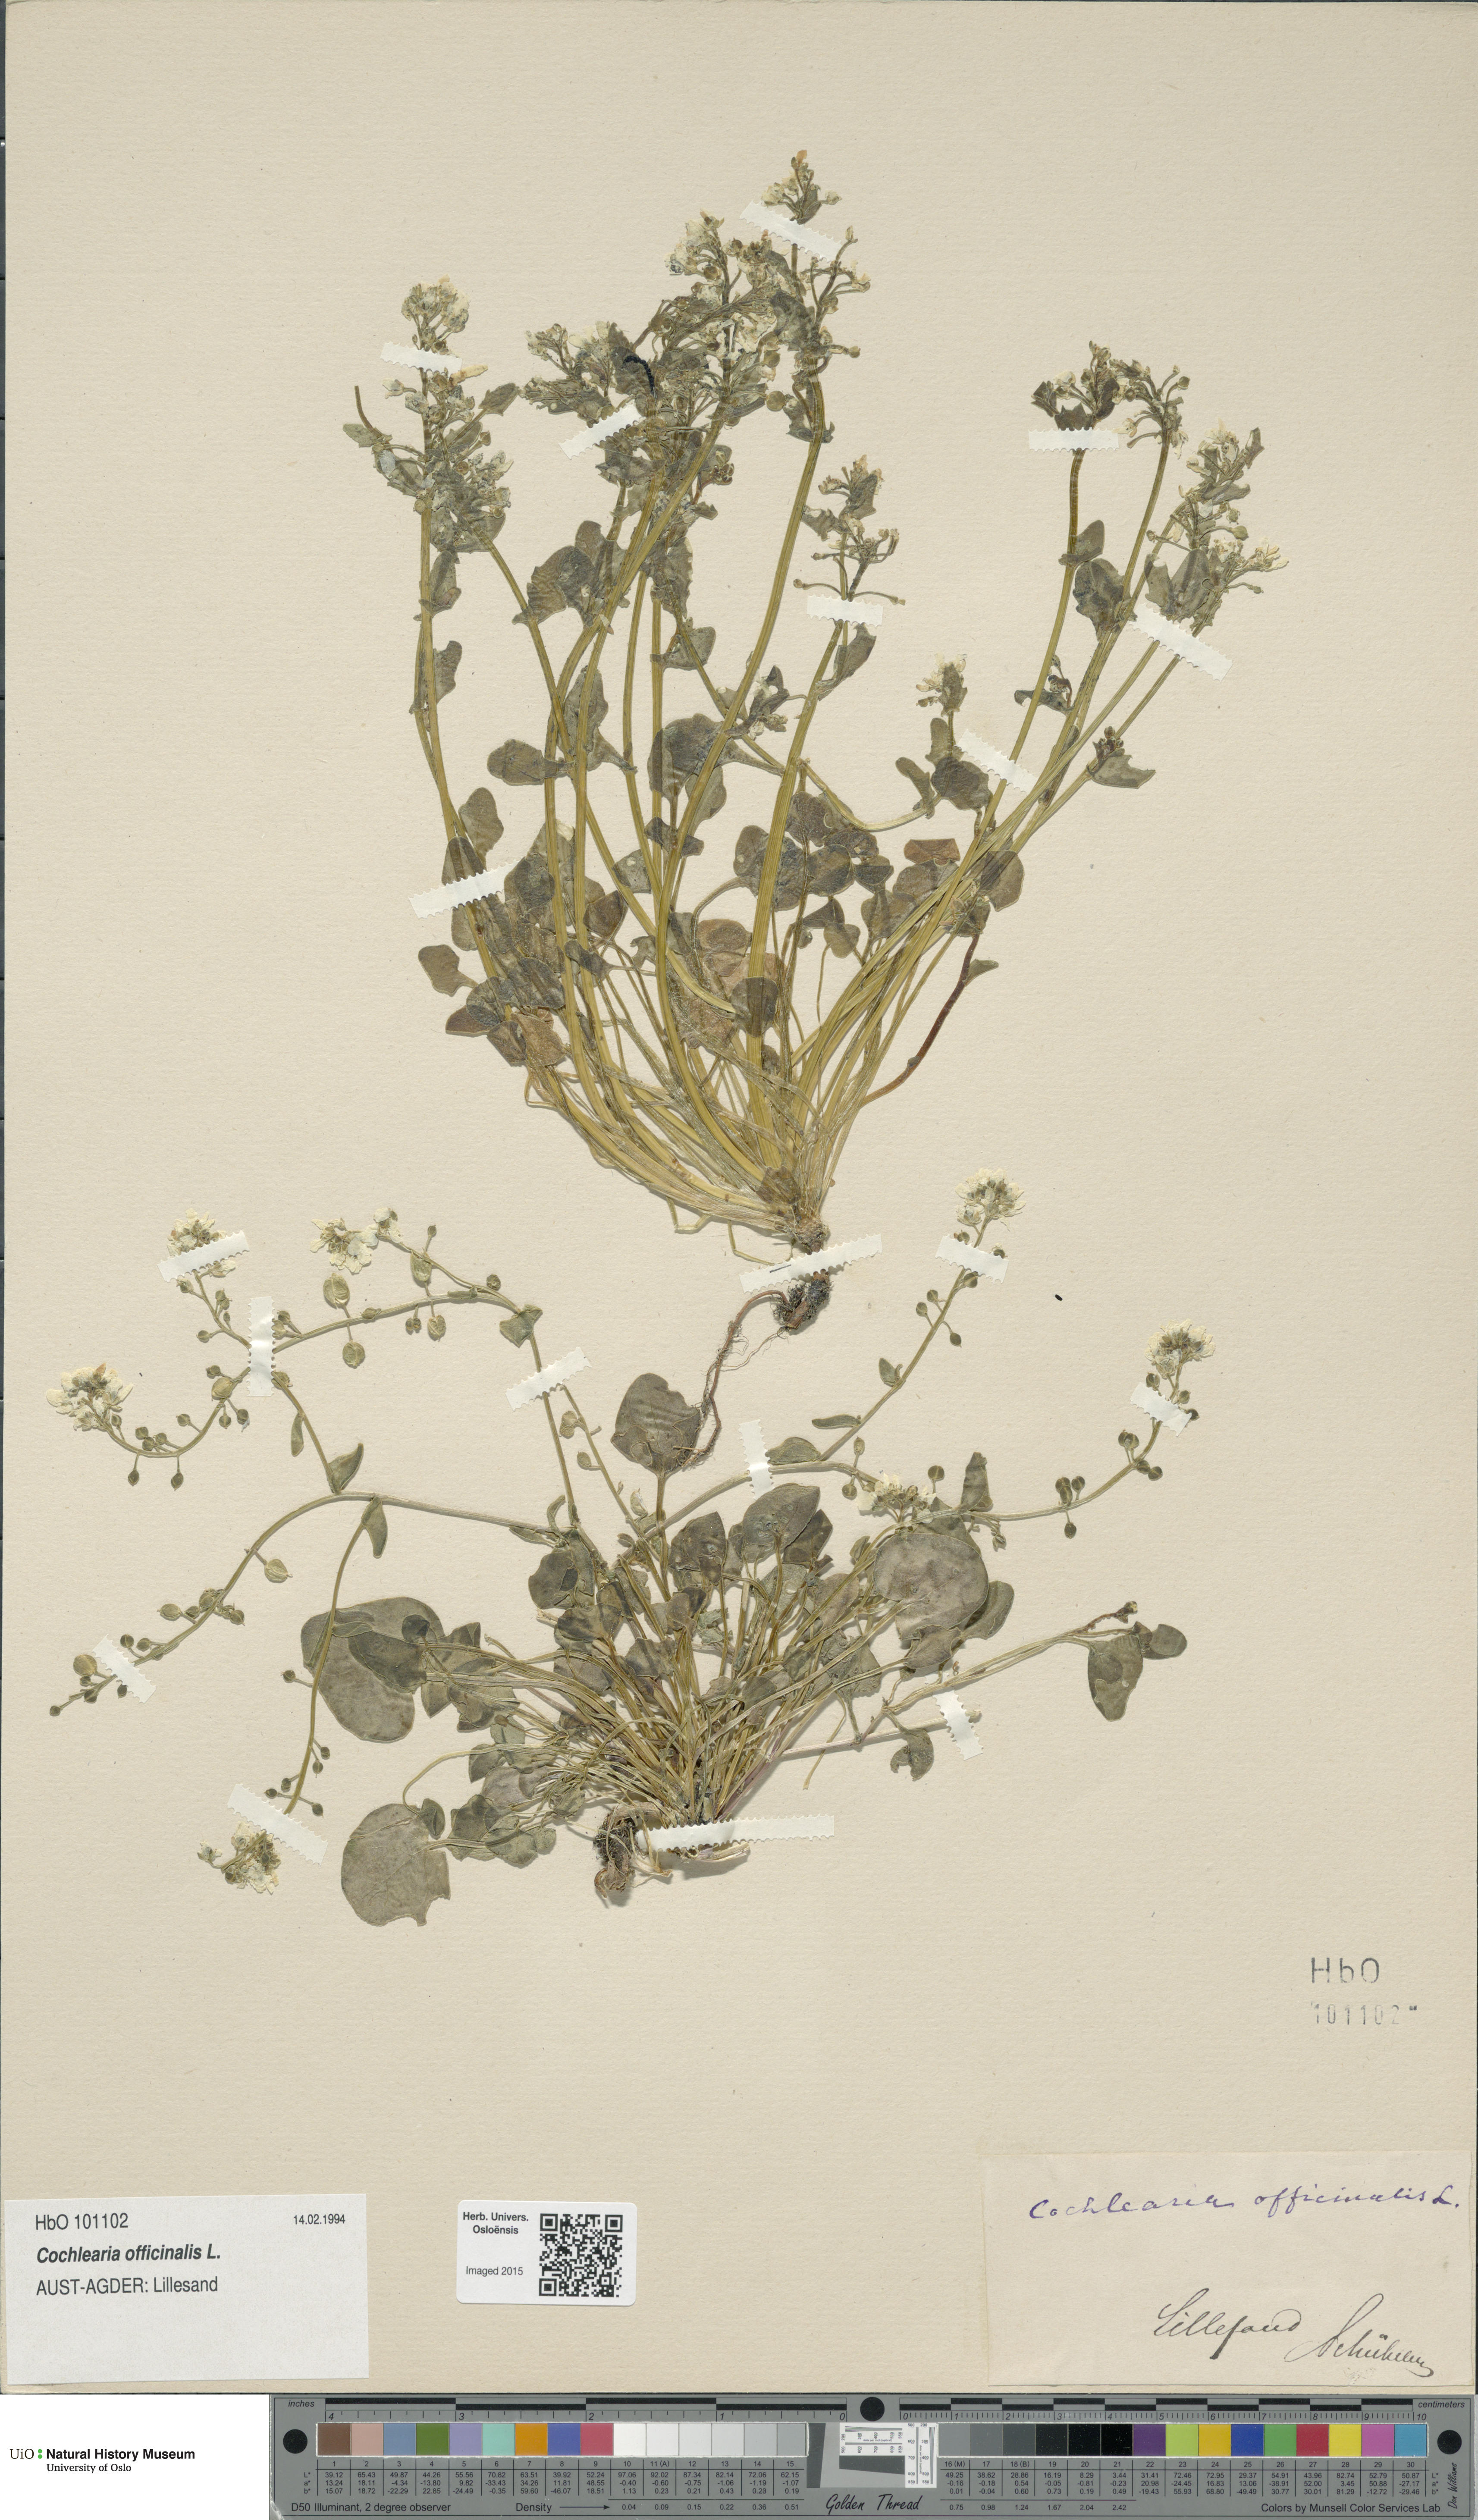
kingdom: Plantae
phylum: Tracheophyta
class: Magnoliopsida
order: Brassicales
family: Brassicaceae
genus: Cochlearia
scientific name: Cochlearia officinalis
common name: Scurvy-grass
